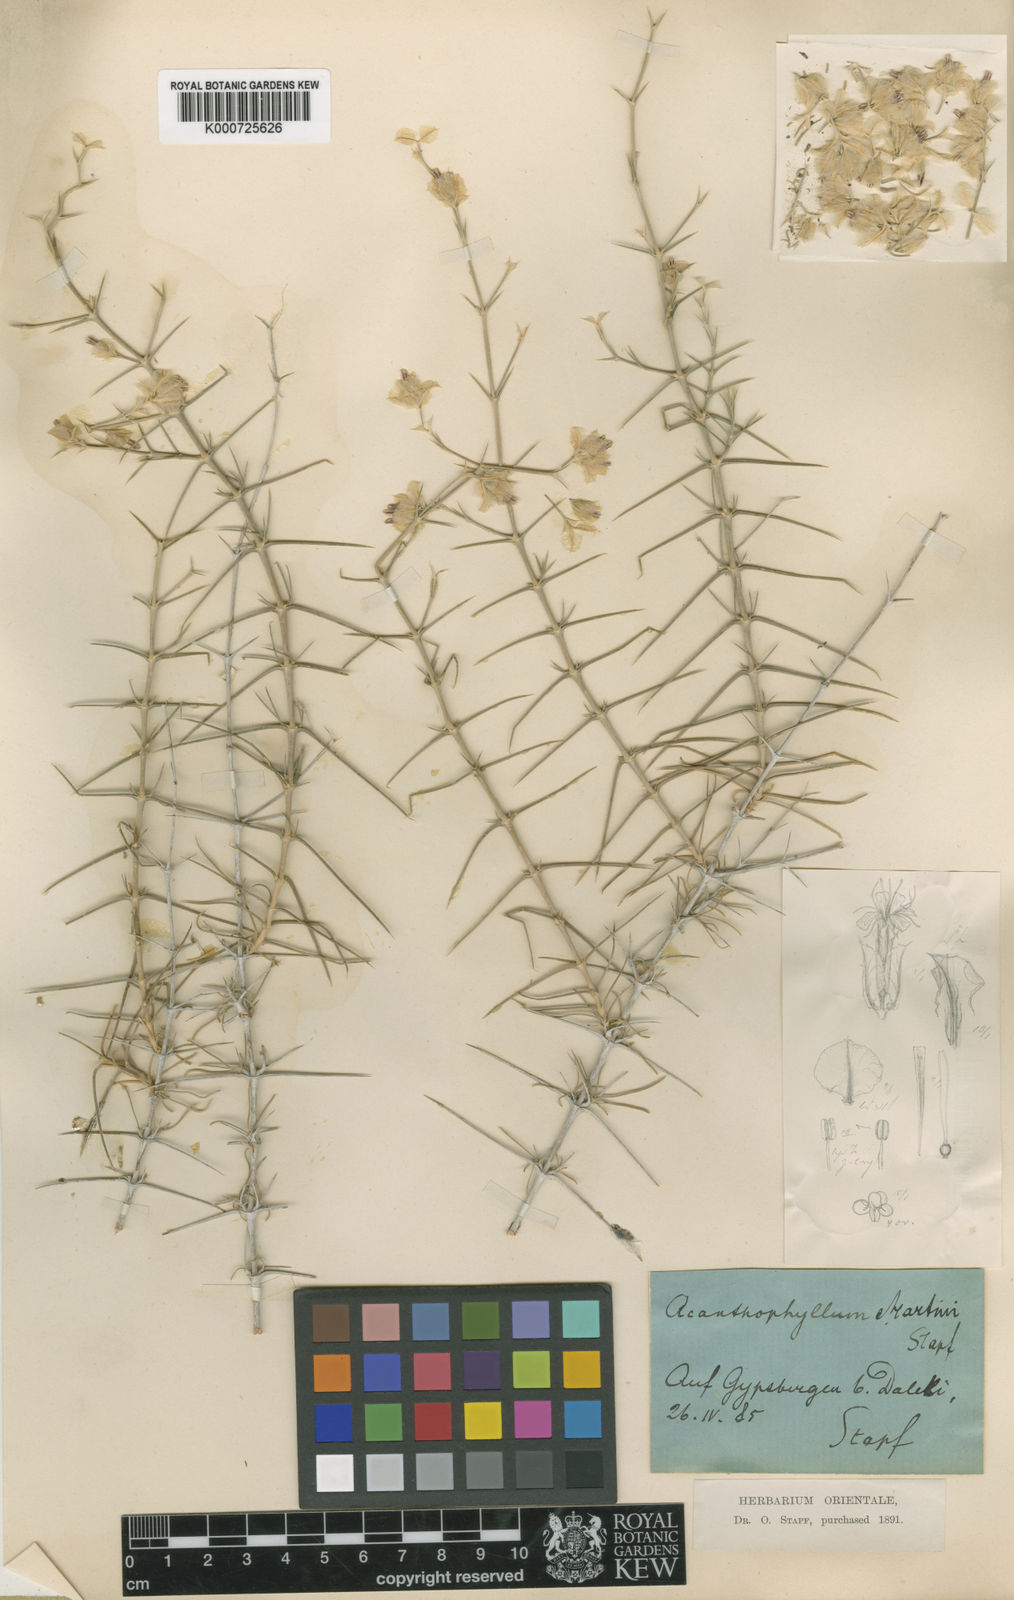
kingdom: Plantae
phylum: Tracheophyta
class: Magnoliopsida
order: Caryophyllales
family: Caryophyllaceae
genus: Acanthophyllum
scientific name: Acanthophyllum
